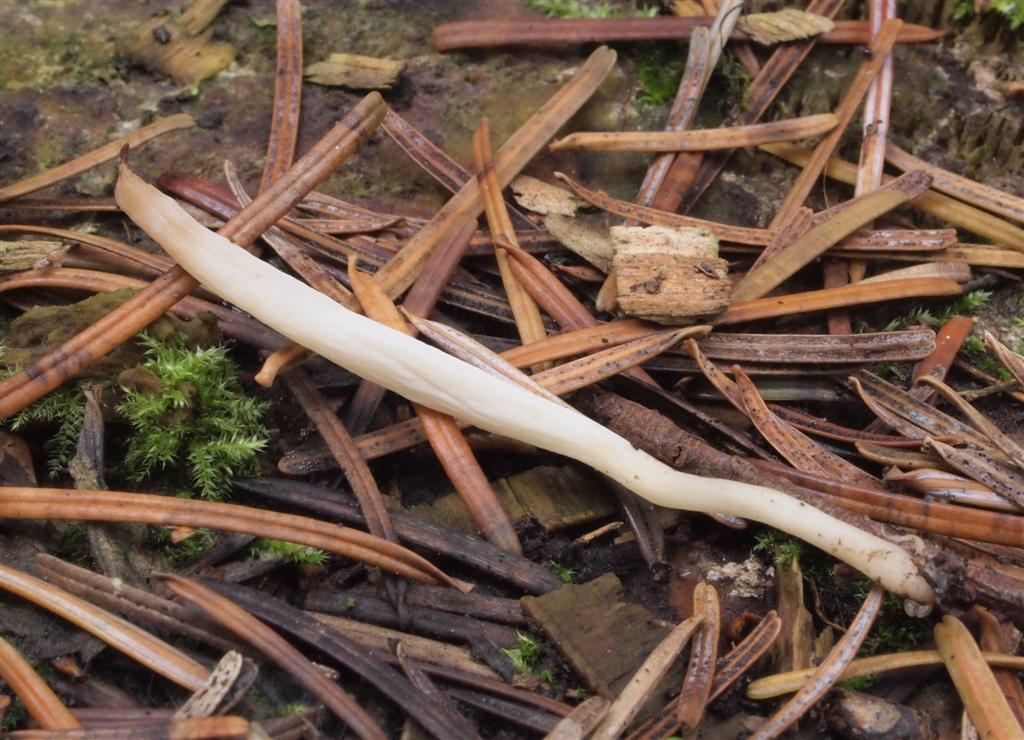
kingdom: Fungi
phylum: Basidiomycota
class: Agaricomycetes
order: Agaricales
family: Clavariaceae
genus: Clavaria
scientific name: Clavaria falcata
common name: hvid køllesvamp
